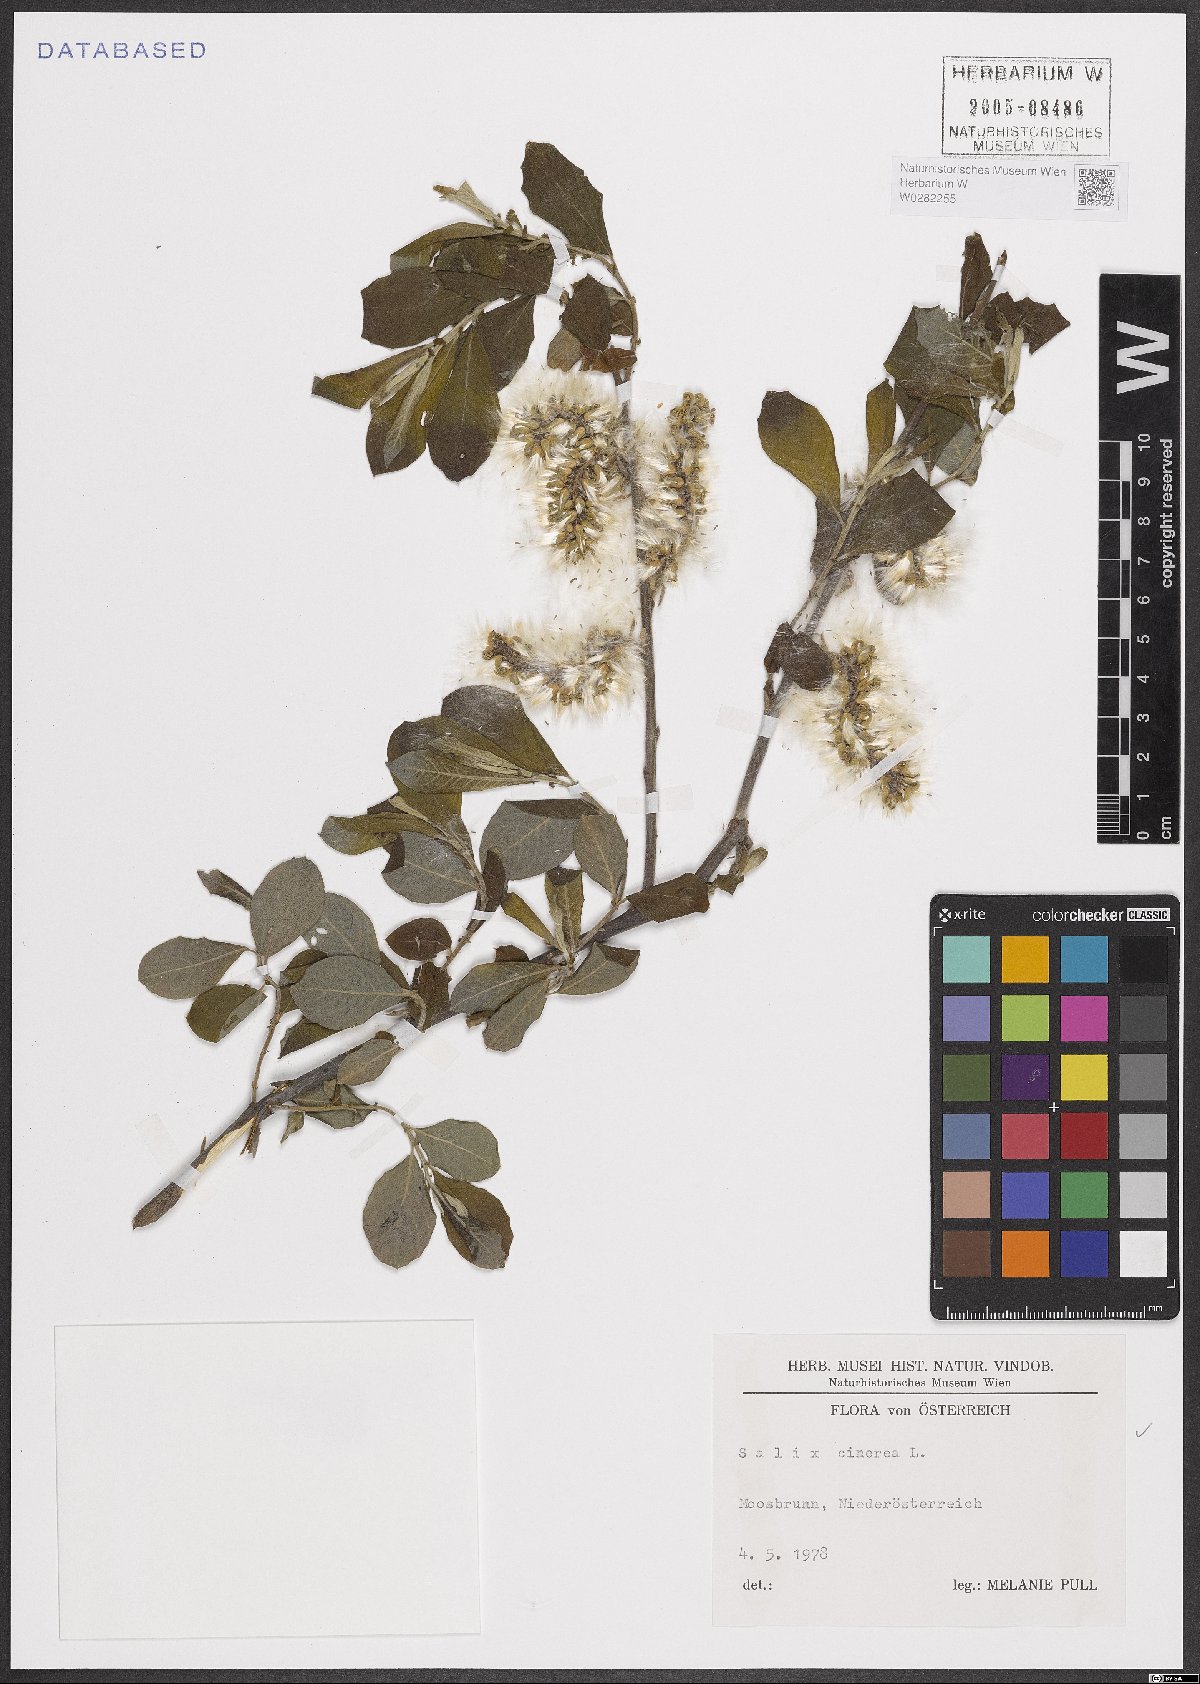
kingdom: Plantae
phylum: Tracheophyta
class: Magnoliopsida
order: Malpighiales
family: Salicaceae
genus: Salix
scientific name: Salix cinerea
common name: Common sallow
